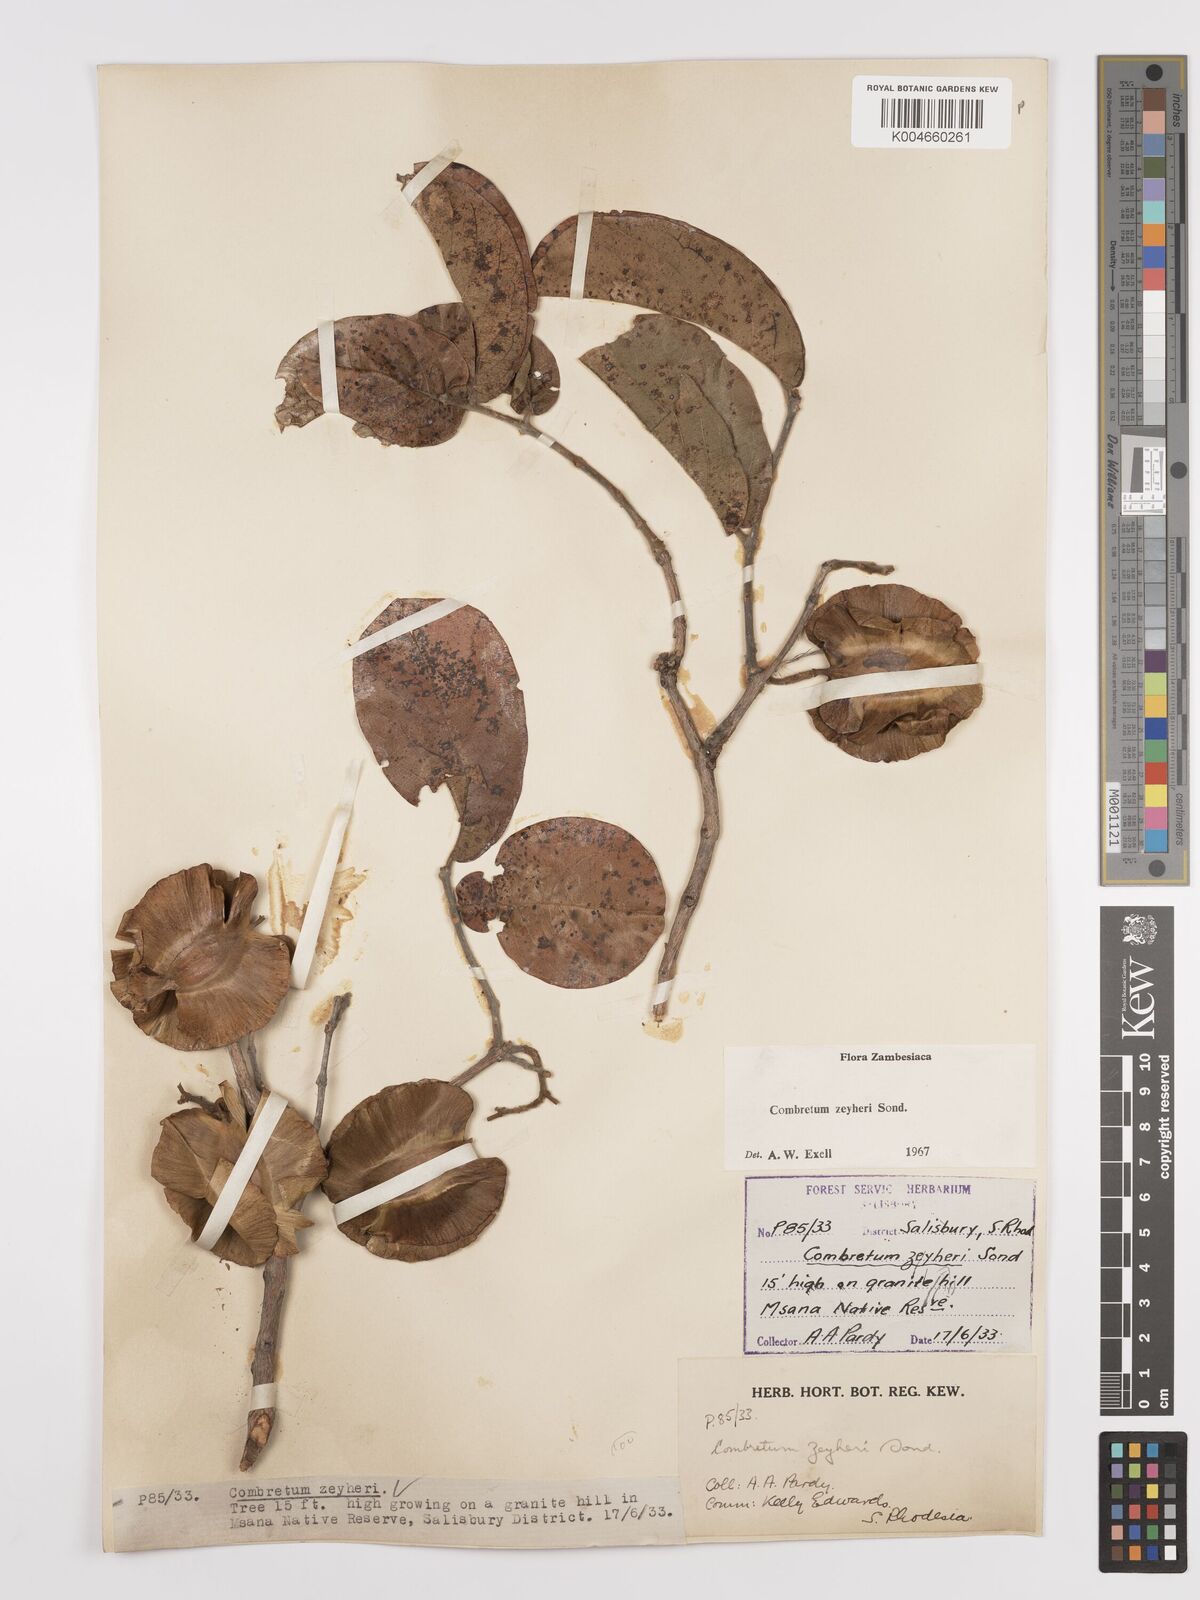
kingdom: Plantae
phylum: Tracheophyta
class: Magnoliopsida
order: Myrtales
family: Combretaceae
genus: Combretum
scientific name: Combretum zeyheri
